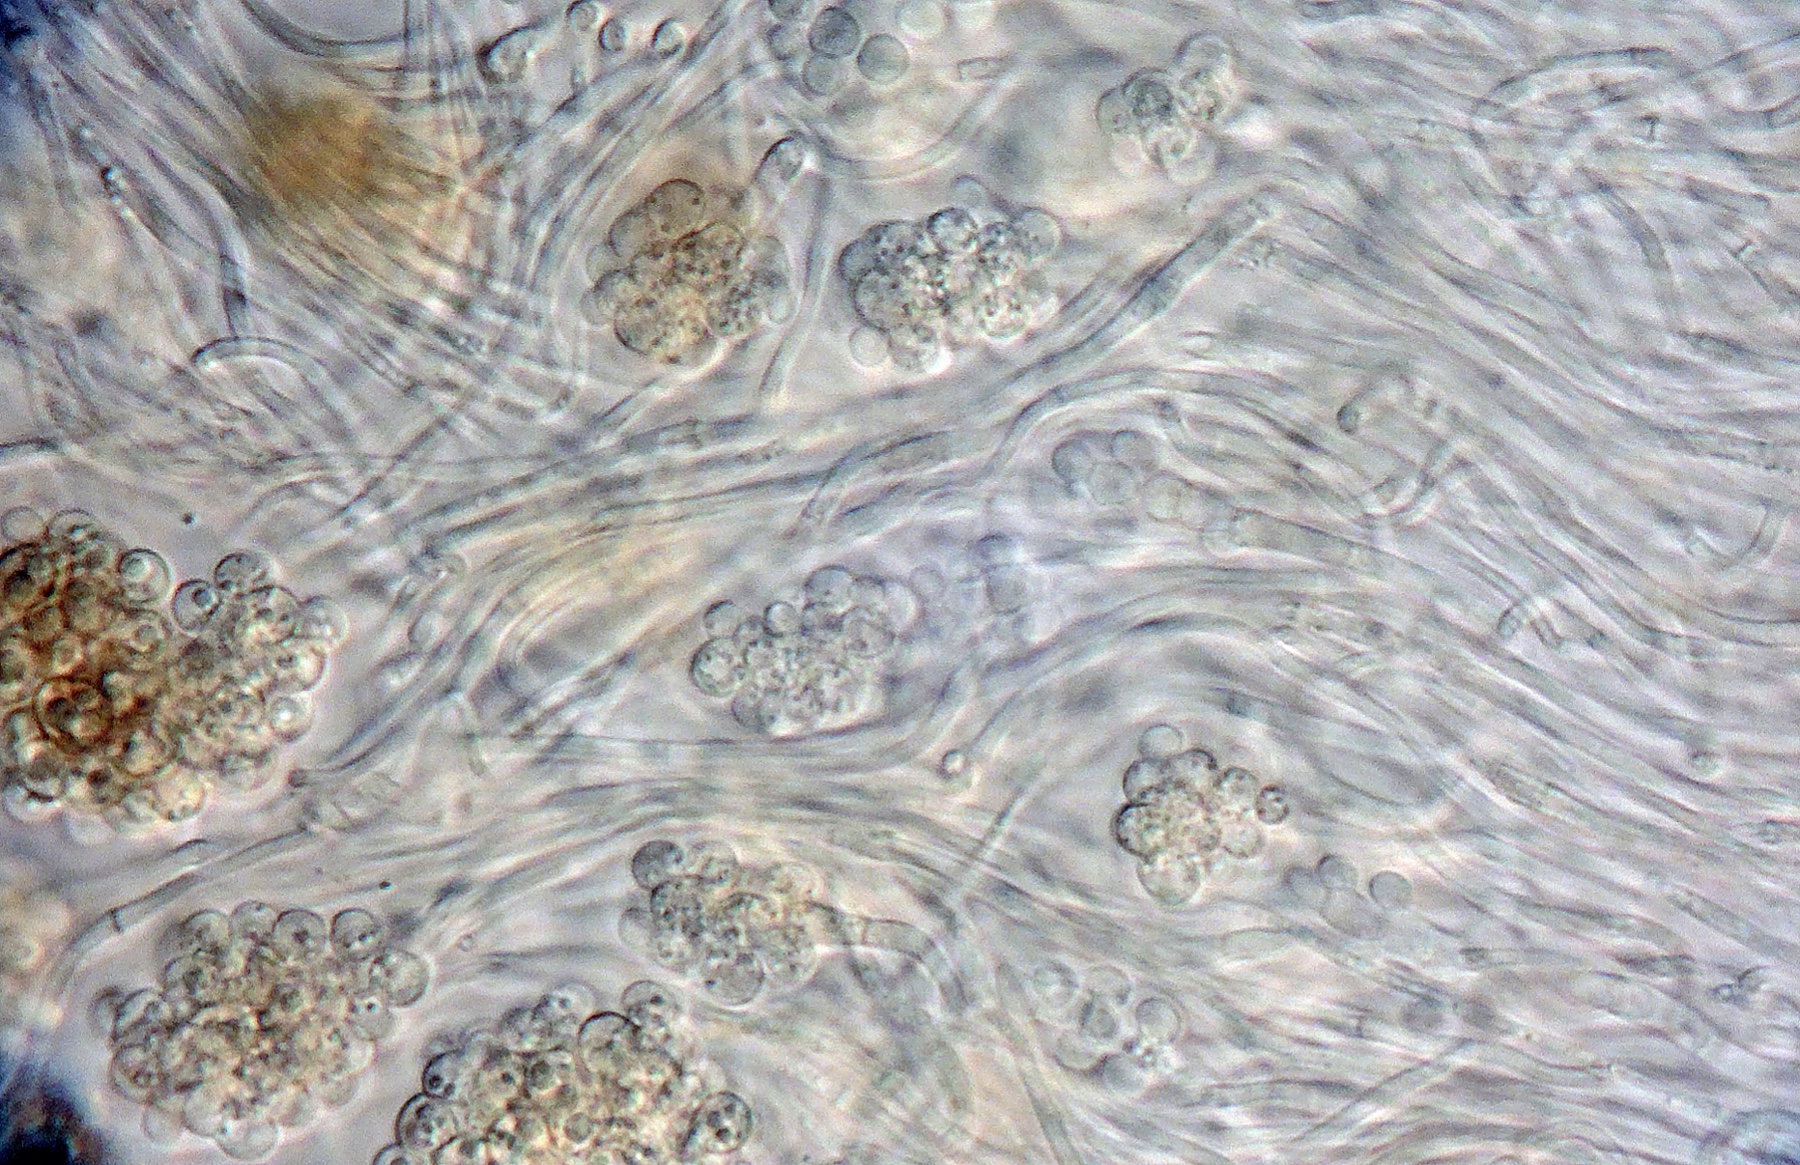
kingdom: Fungi
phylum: Ascomycota
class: Leotiomycetes
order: Helotiales
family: Mollisiaceae
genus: Cheirospora
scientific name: Cheirospora botryospora
